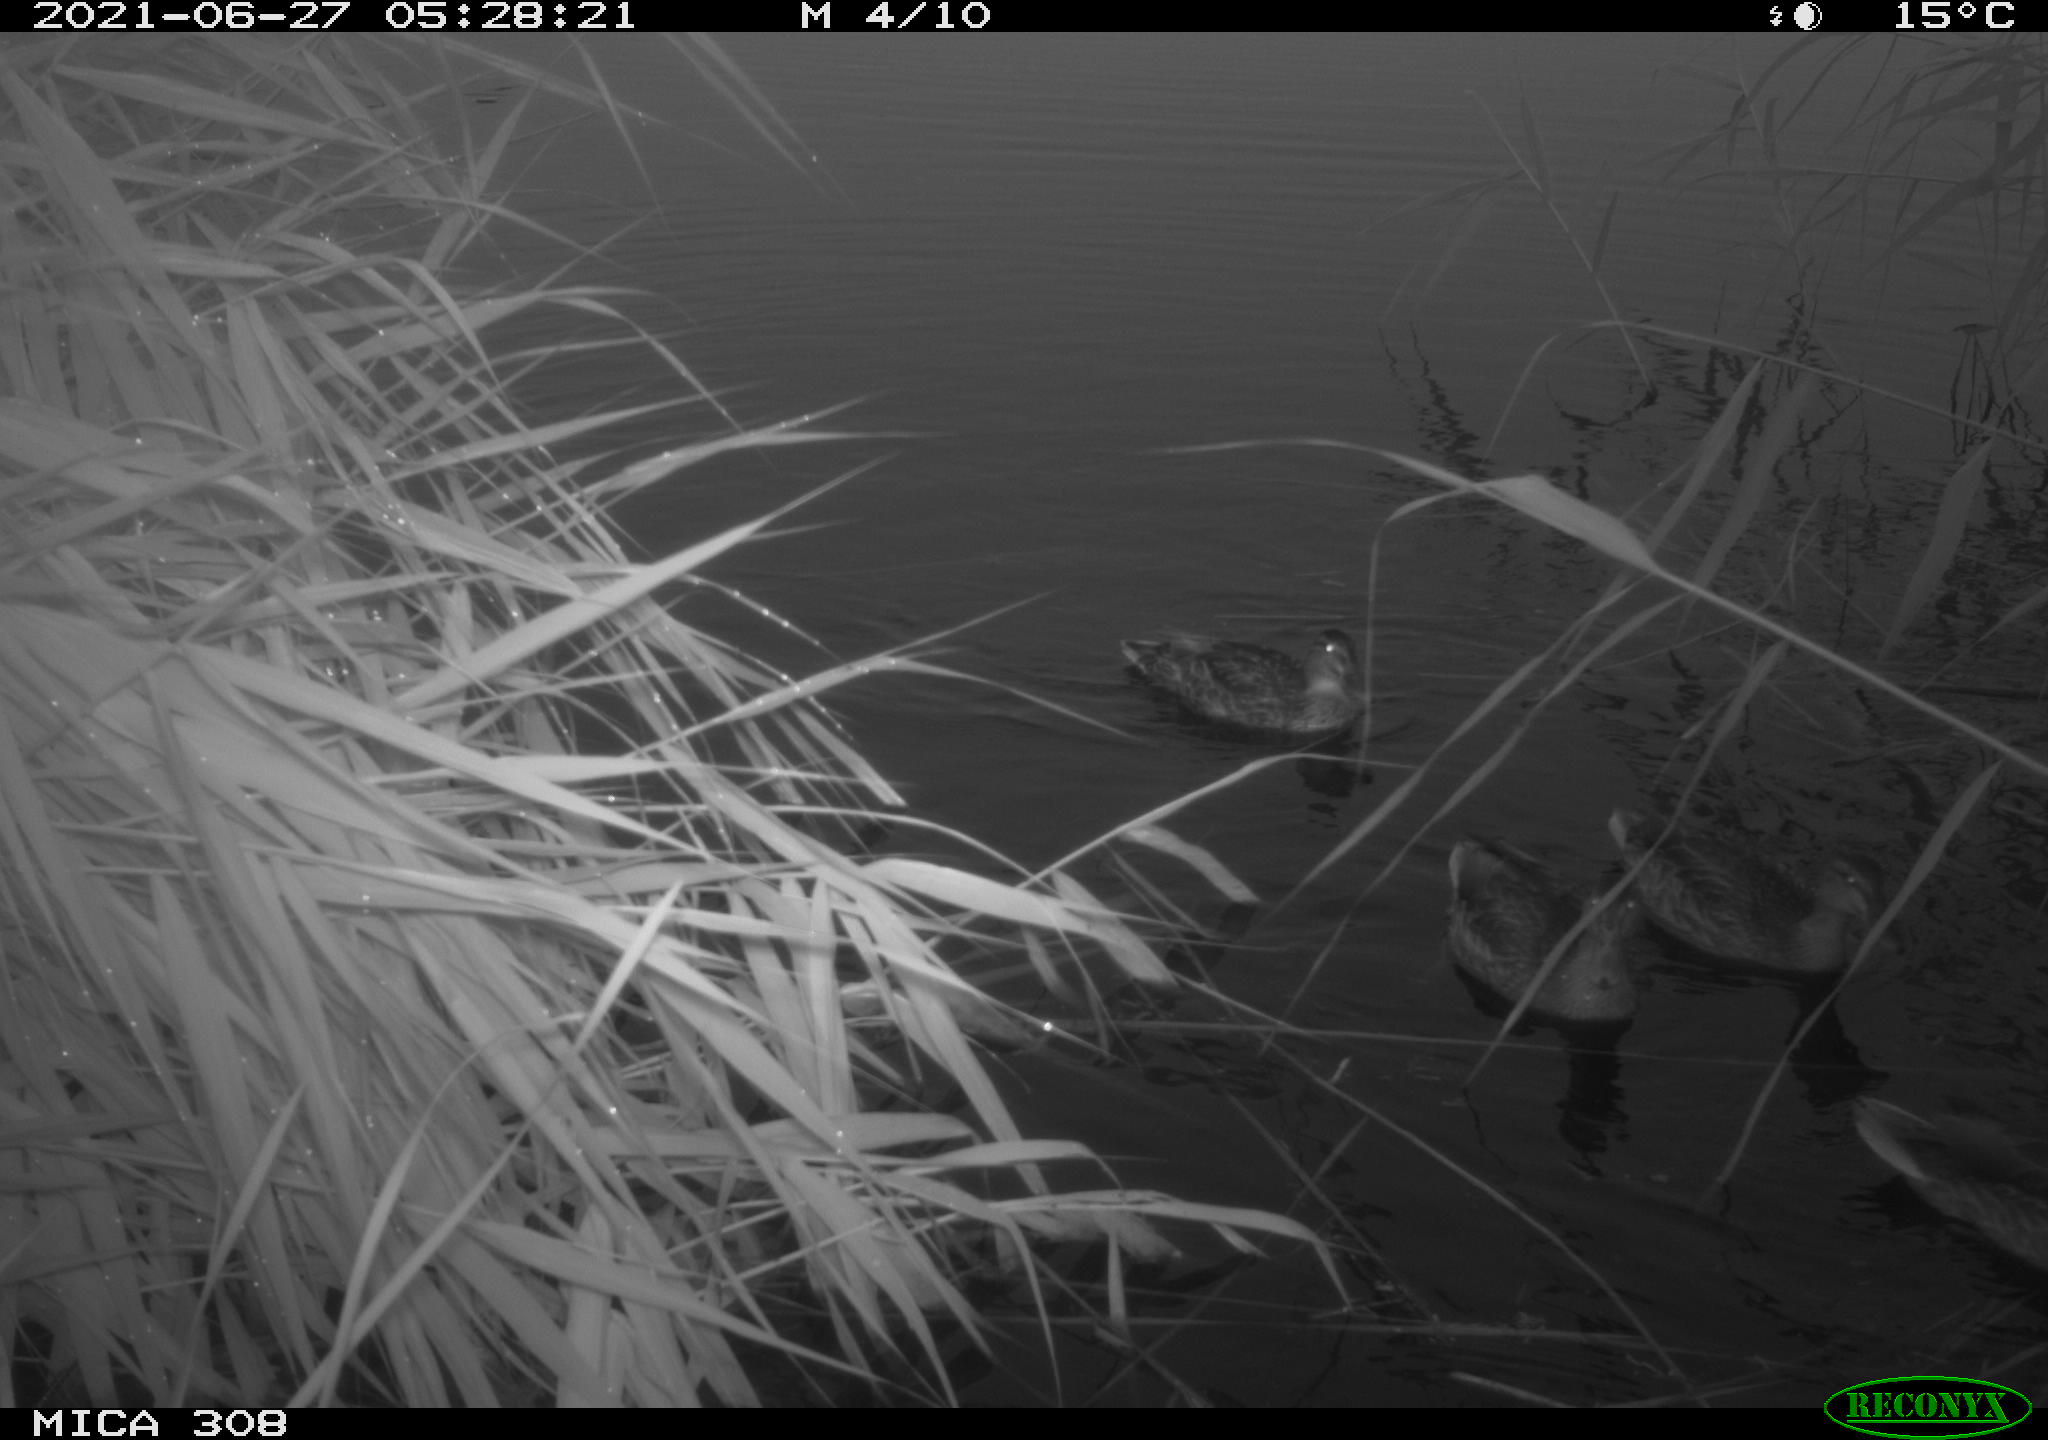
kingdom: Animalia
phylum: Chordata
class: Aves
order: Anseriformes
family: Anatidae
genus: Anas
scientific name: Anas platyrhynchos
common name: Mallard
